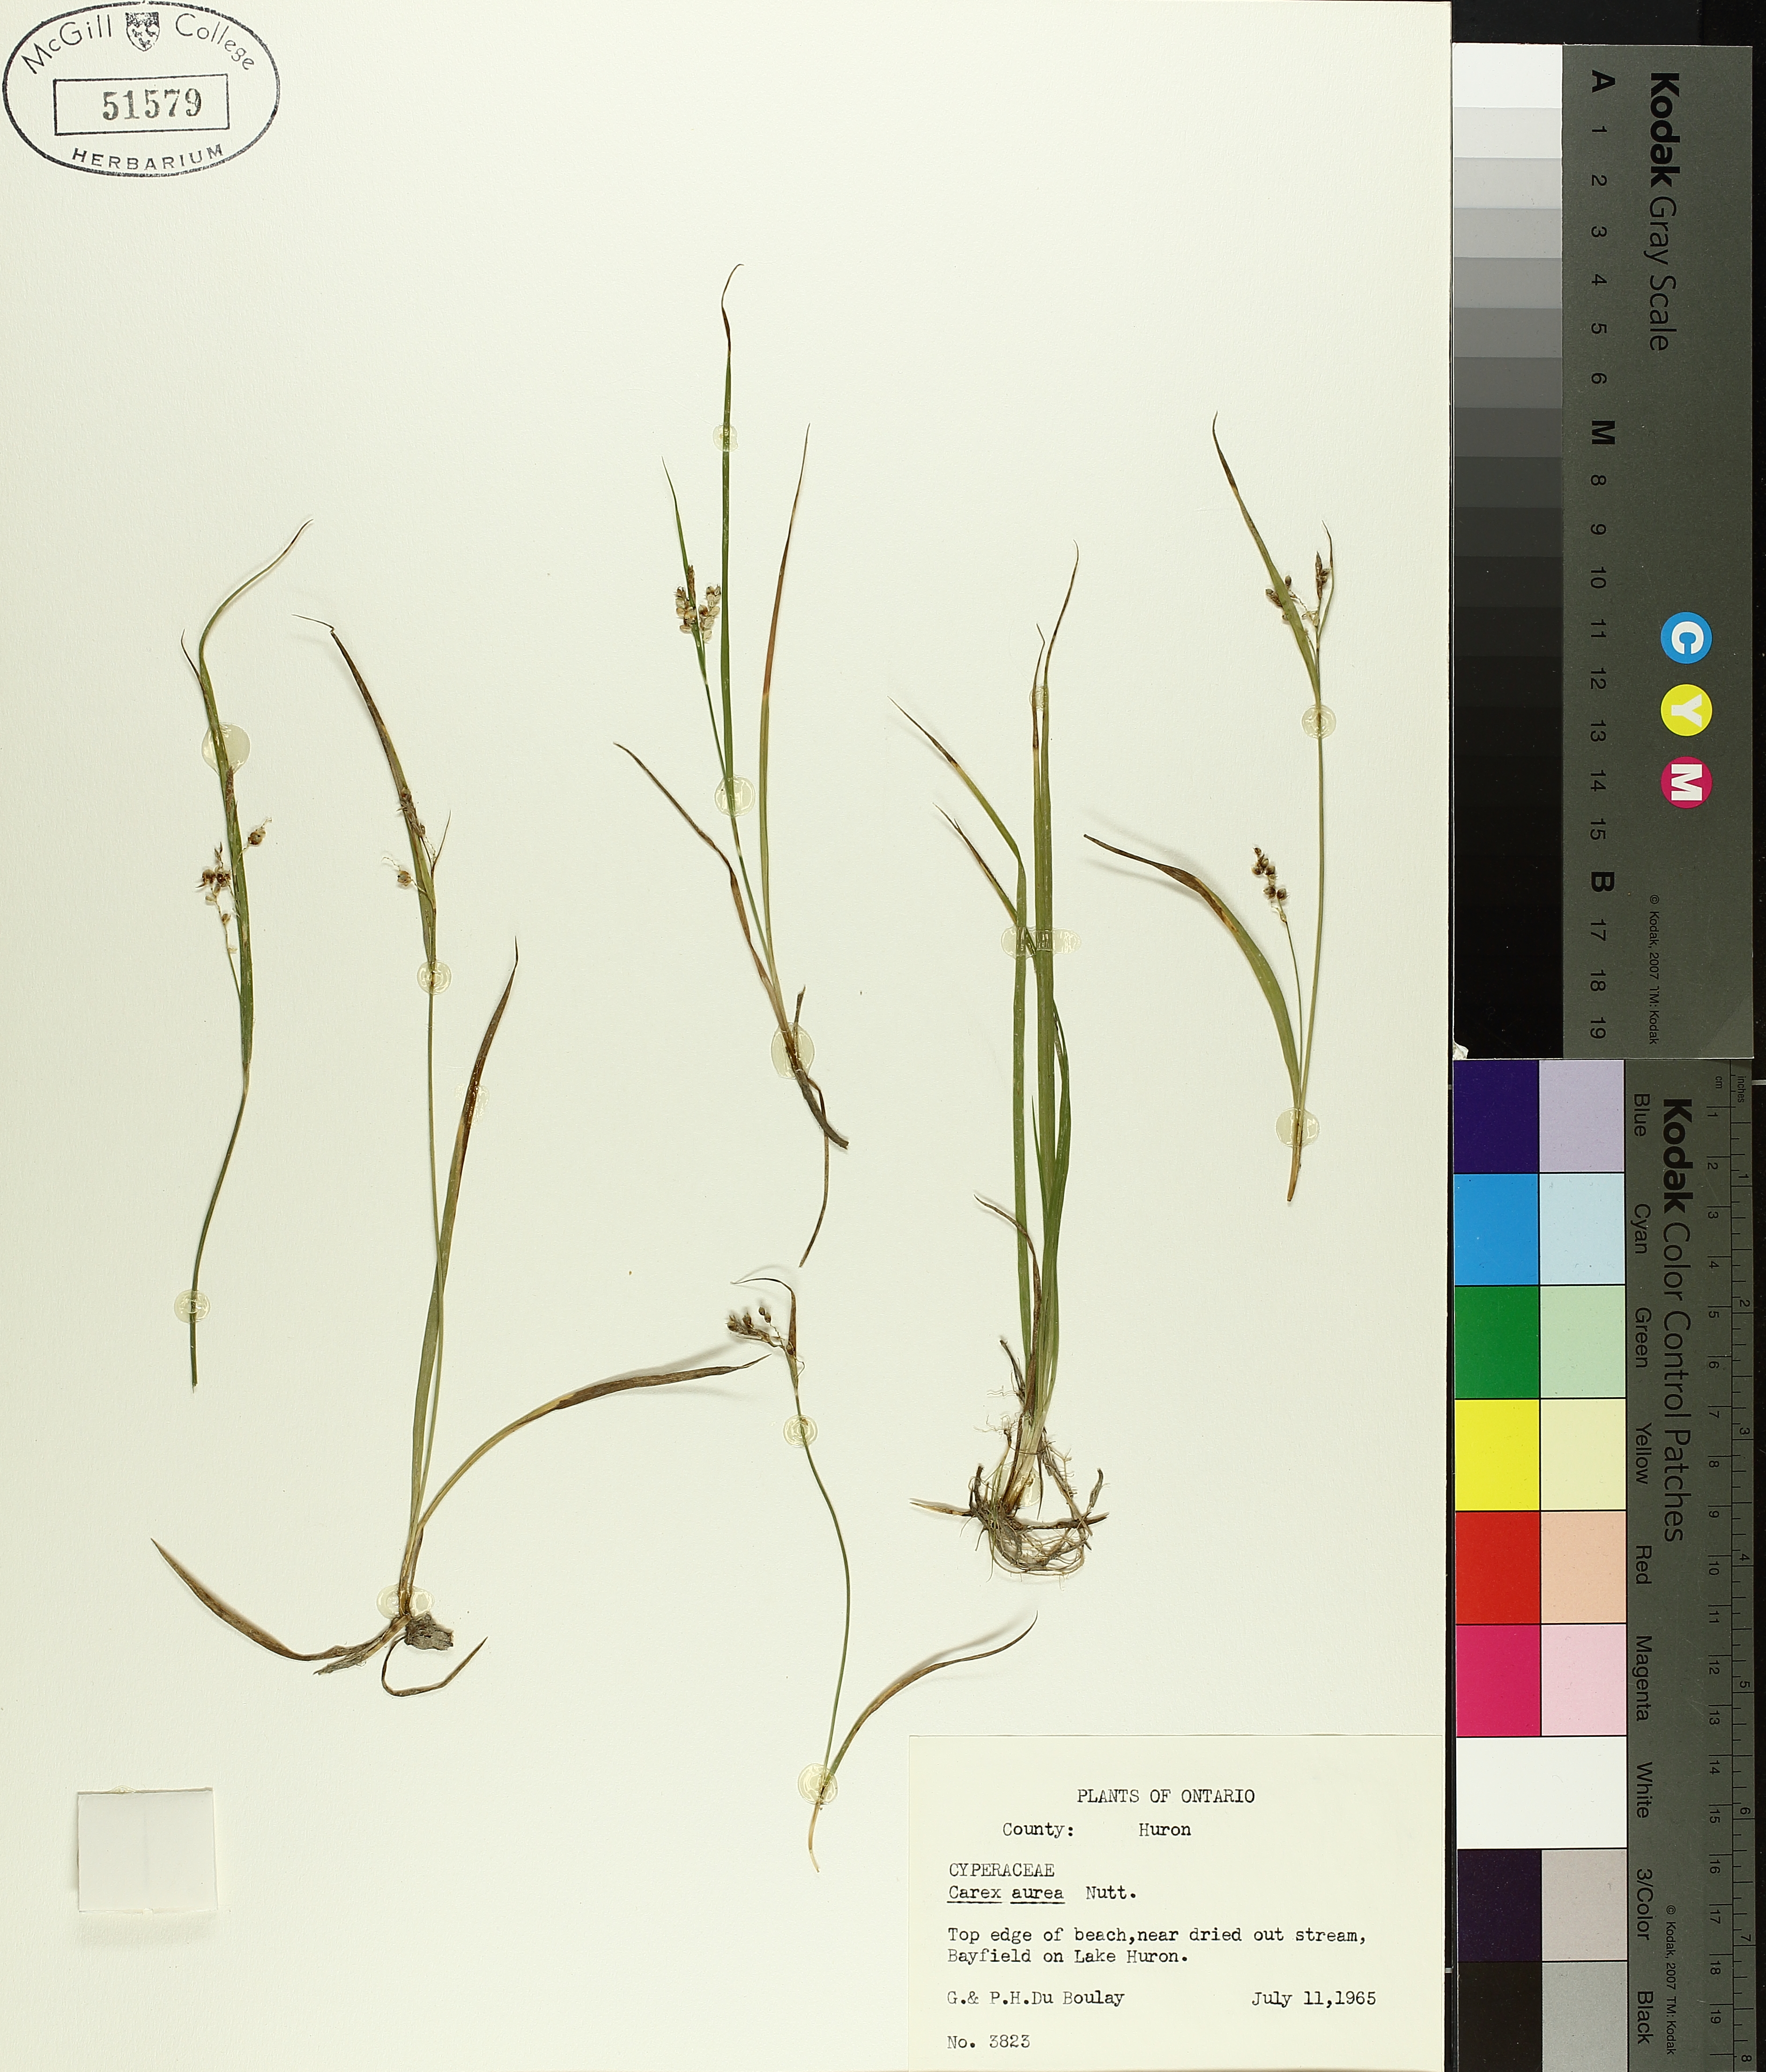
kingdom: Plantae
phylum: Tracheophyta
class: Liliopsida
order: Poales
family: Cyperaceae
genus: Carex
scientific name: Carex aurea
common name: Golden sedge
